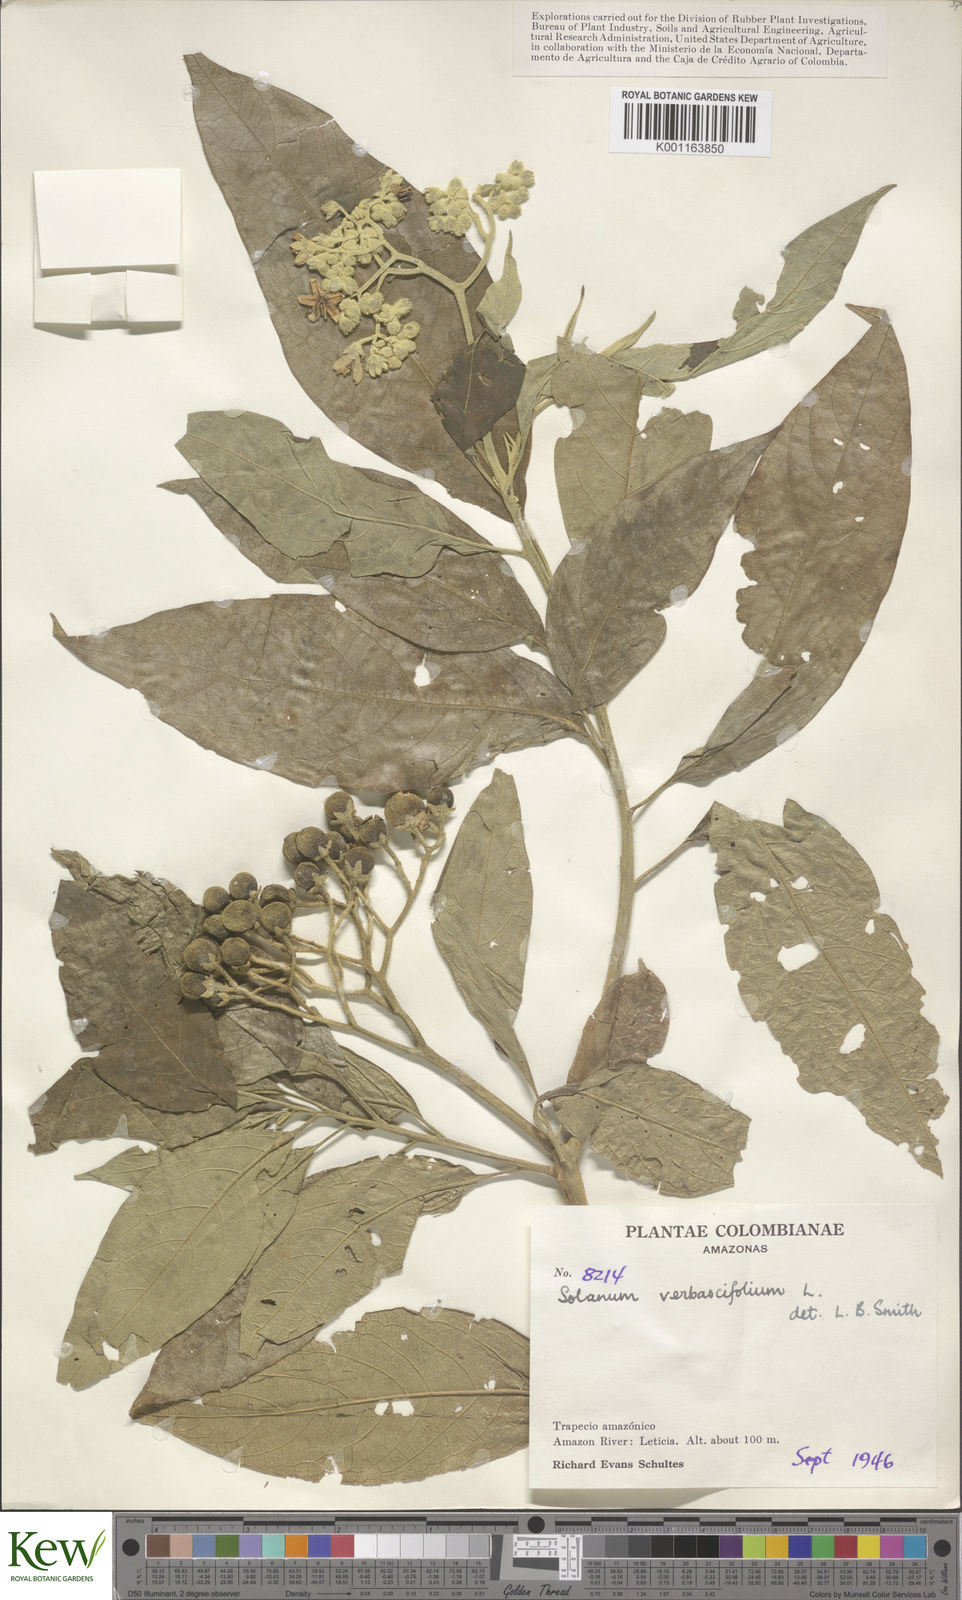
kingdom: Plantae
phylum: Tracheophyta
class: Magnoliopsida
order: Solanales
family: Solanaceae
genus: Solanum
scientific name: Solanum erianthum
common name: Tobacco-tree
